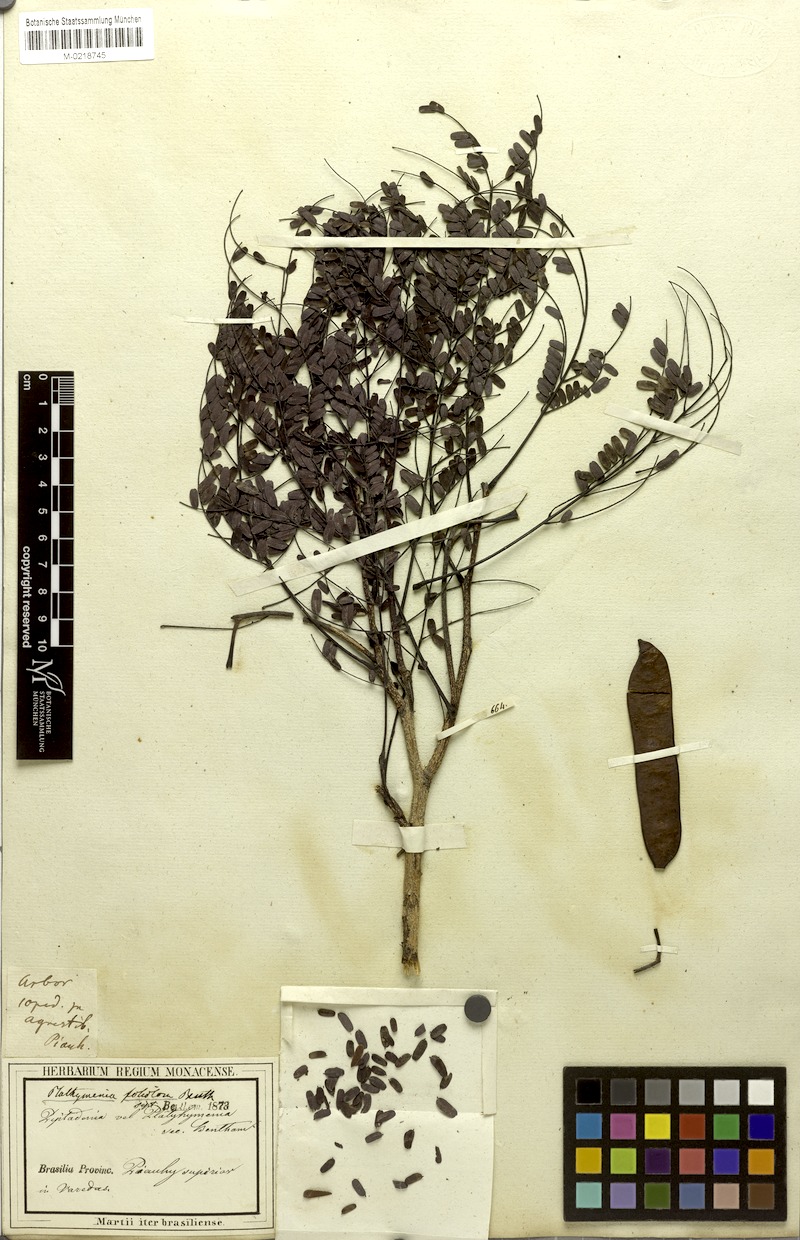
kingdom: Plantae
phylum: Tracheophyta
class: Magnoliopsida
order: Fabales
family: Fabaceae
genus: Plathymenia
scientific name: Plathymenia reticulata
